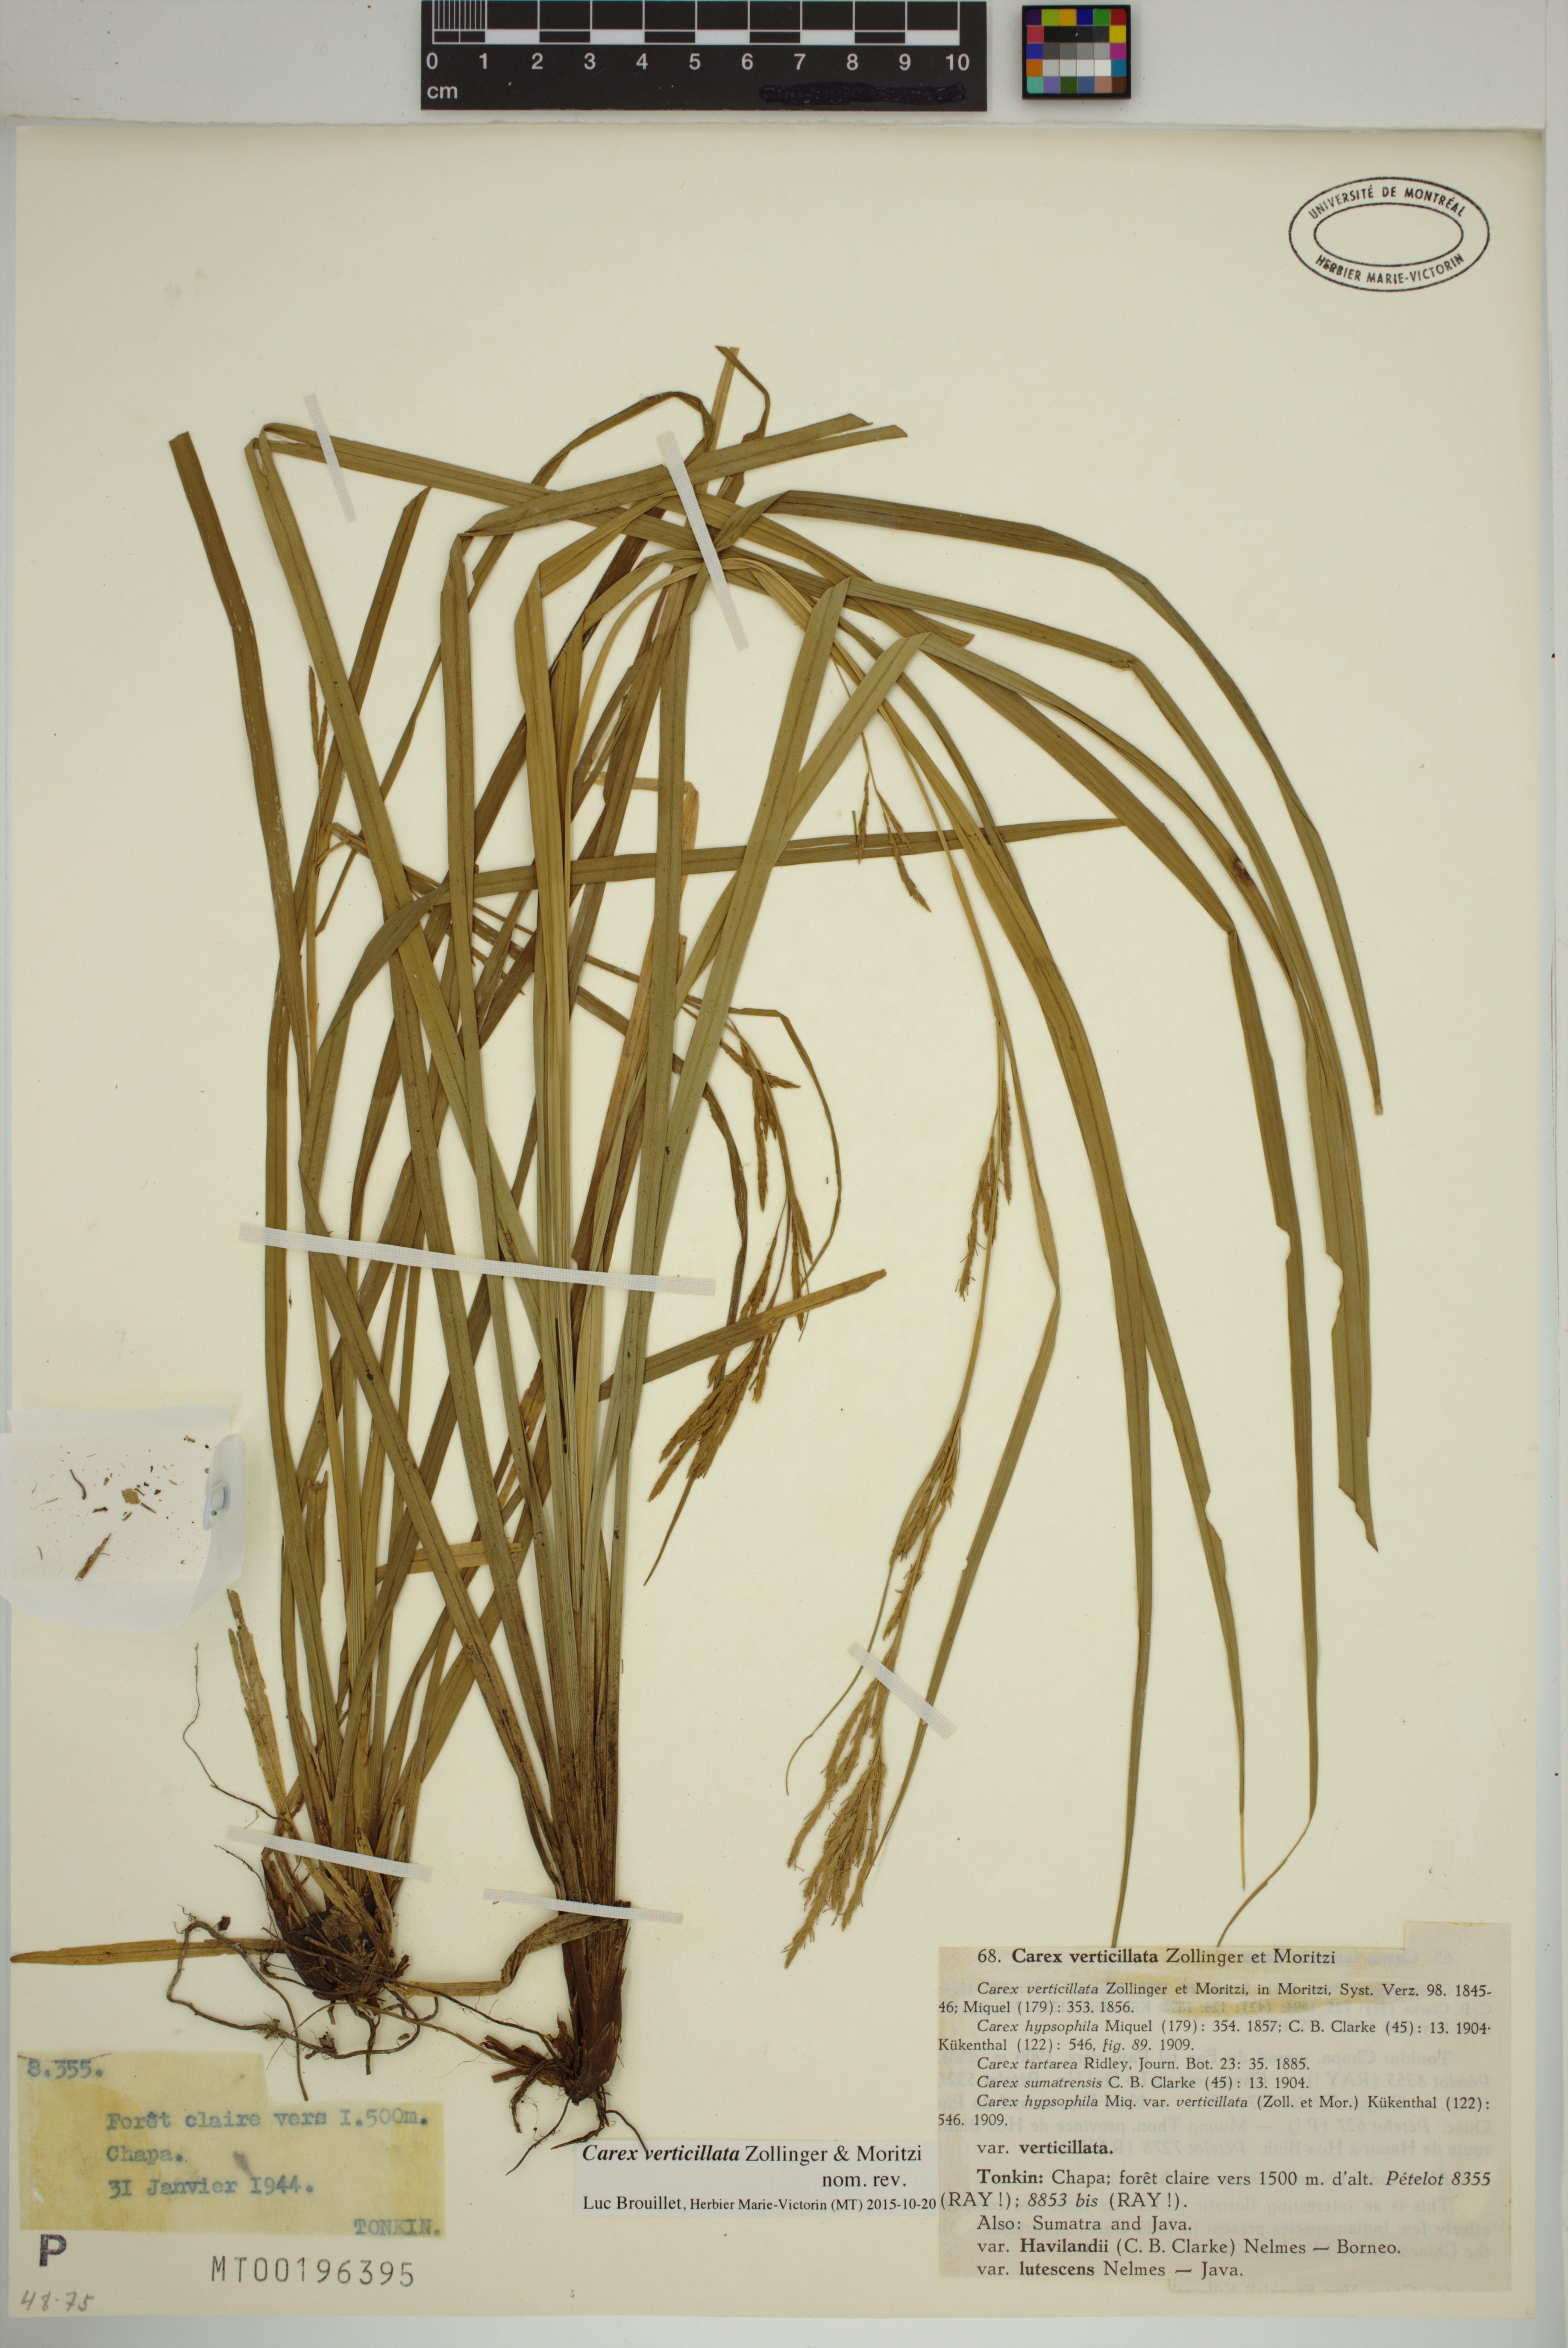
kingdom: Plantae
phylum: Tracheophyta
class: Liliopsida
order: Poales
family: Cyperaceae
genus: Carex
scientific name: Carex verticillata
